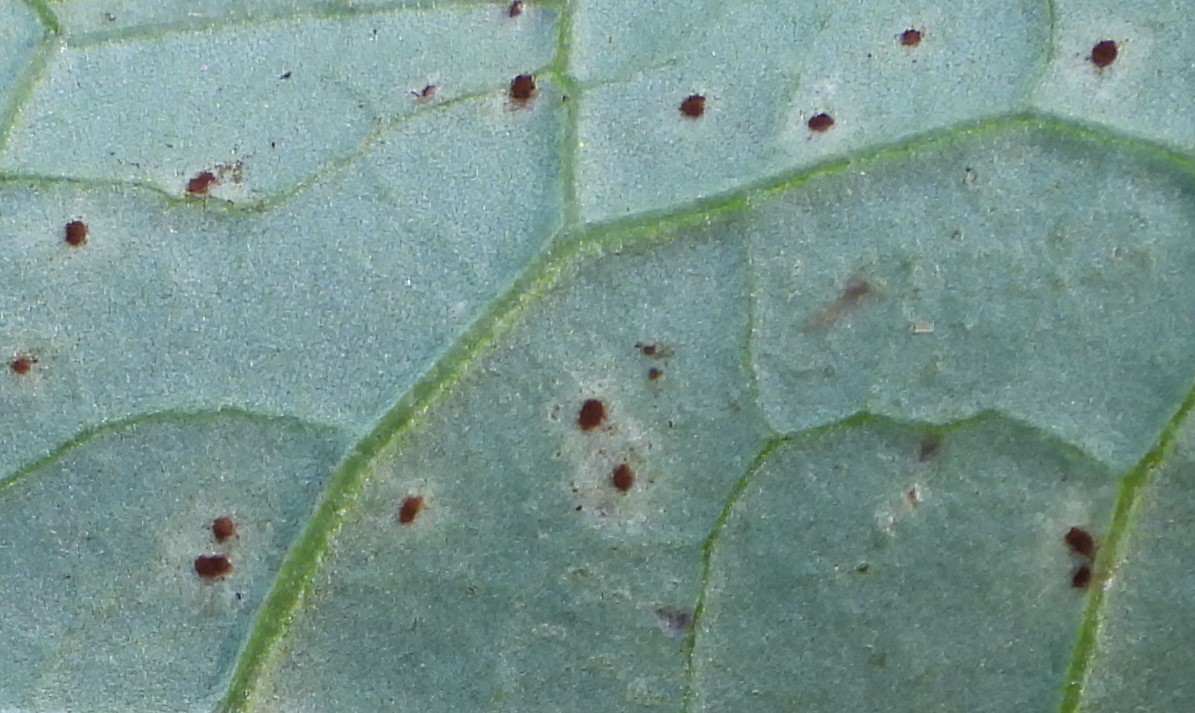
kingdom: Fungi
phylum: Basidiomycota
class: Pucciniomycetes
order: Pucciniales
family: Pucciniaceae
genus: Puccinia
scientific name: Puccinia laschii
